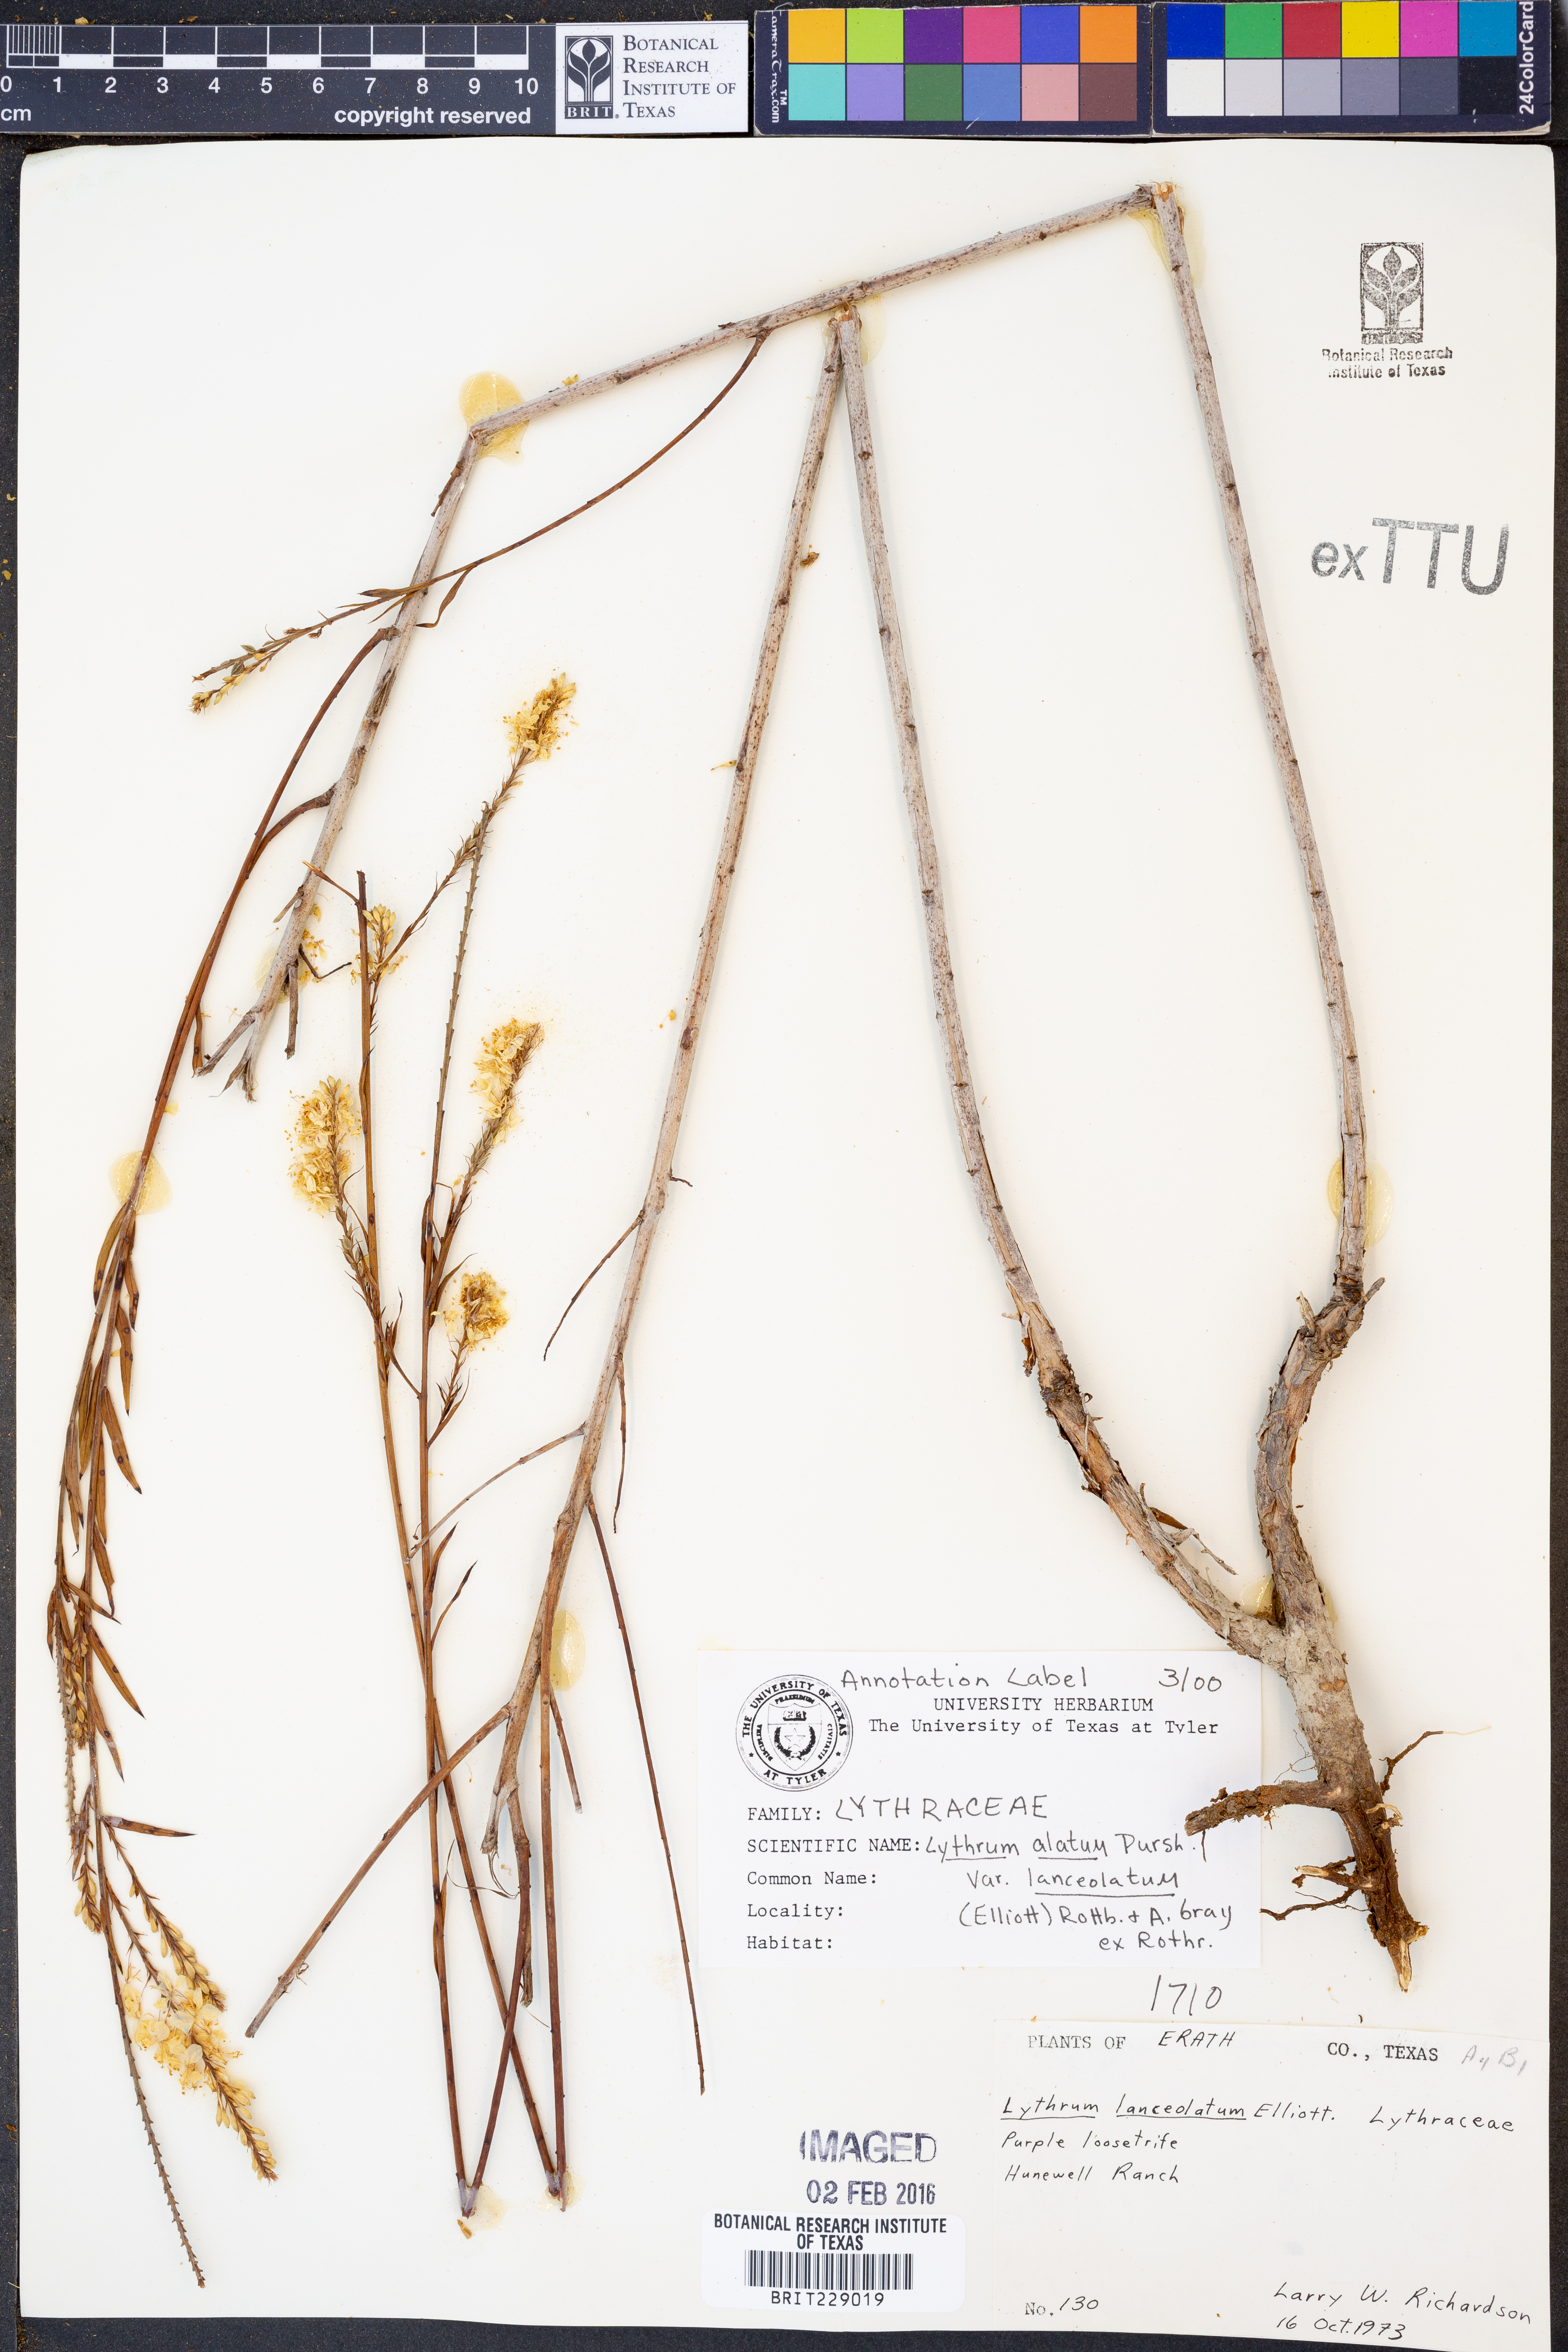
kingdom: Plantae
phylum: Tracheophyta
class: Magnoliopsida
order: Myrtales
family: Lythraceae
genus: Lythrum
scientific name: Lythrum alatum
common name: Winged loosestrife
